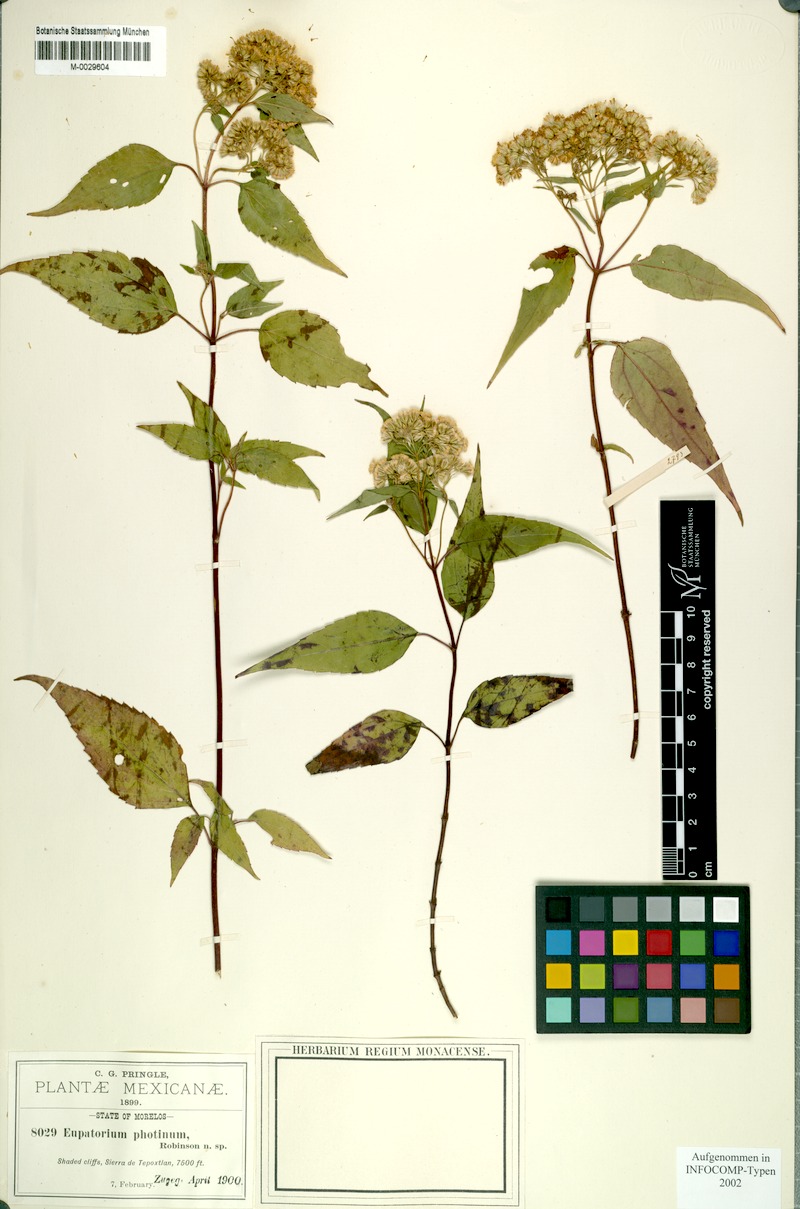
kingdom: Plantae
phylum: Tracheophyta
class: Magnoliopsida
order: Asterales
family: Asteraceae
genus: Ageratina
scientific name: Ageratina photina
